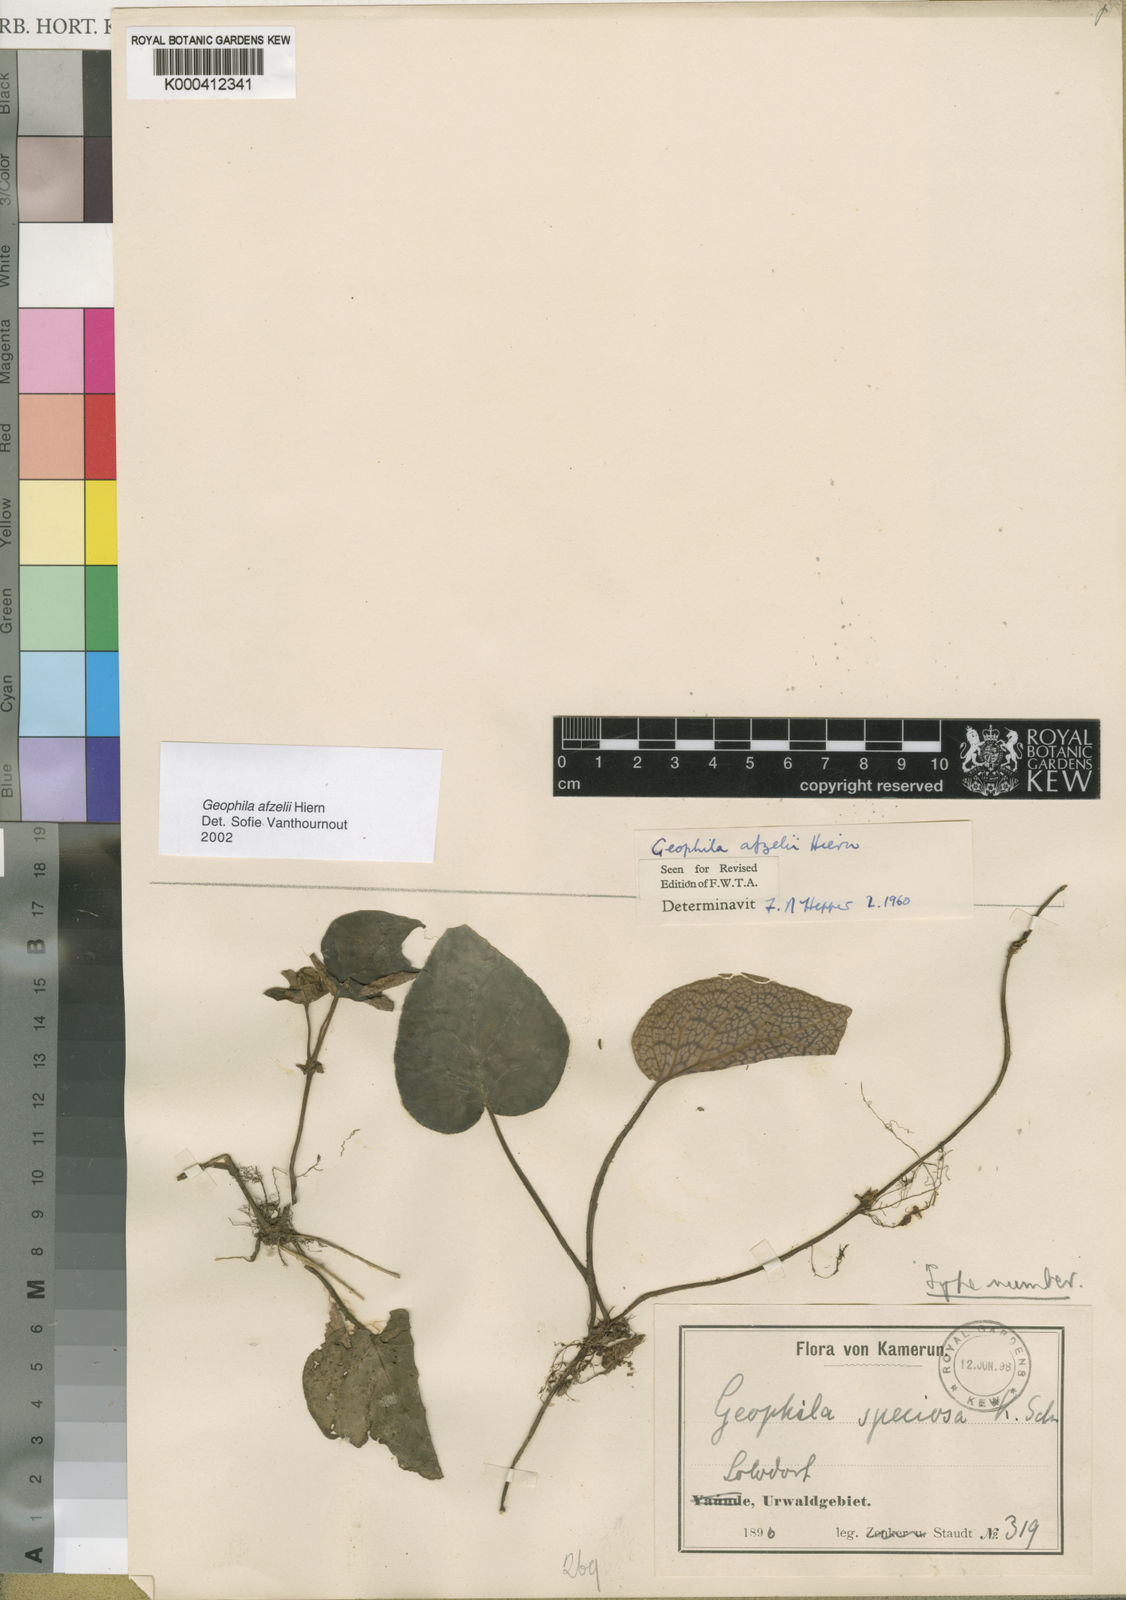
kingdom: Plantae
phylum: Tracheophyta
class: Magnoliopsida
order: Gentianales
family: Rubiaceae
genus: Geophila
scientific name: Geophila afzelii
